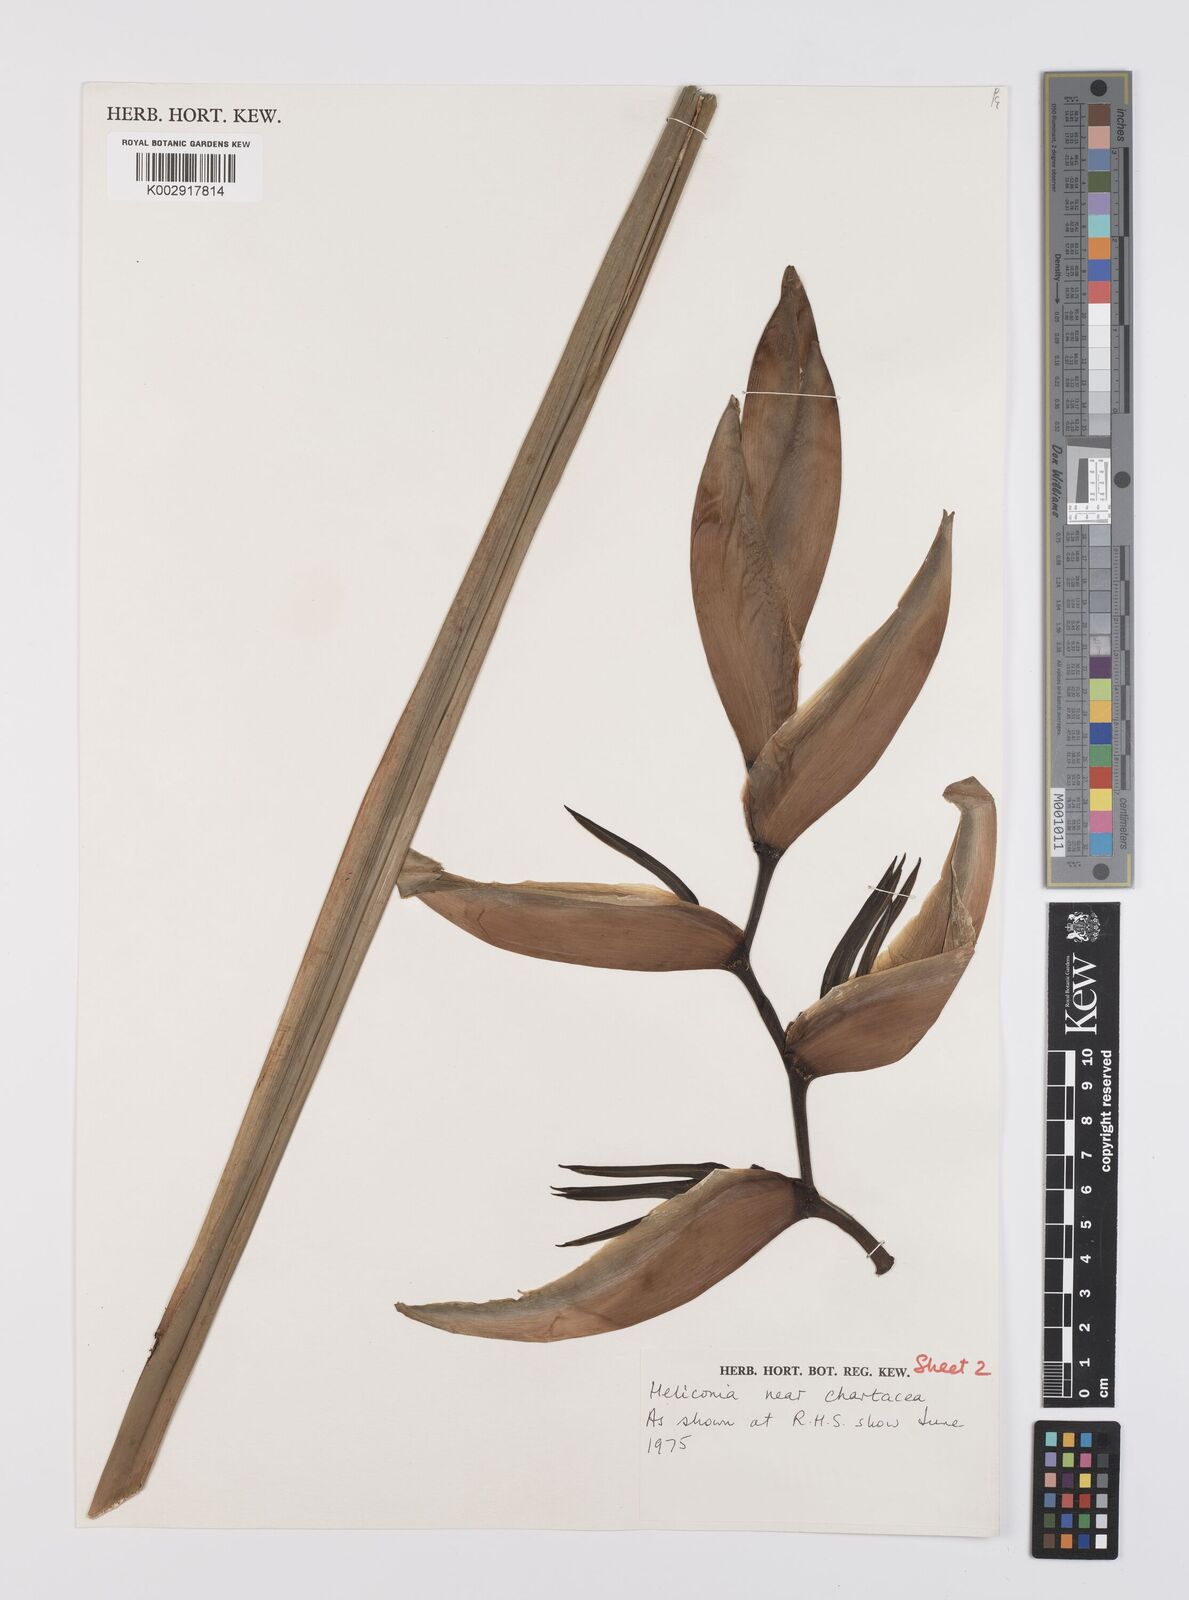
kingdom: Plantae
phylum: Tracheophyta
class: Liliopsida
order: Zingiberales
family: Heliconiaceae
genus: Heliconia
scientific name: Heliconia chartacea
